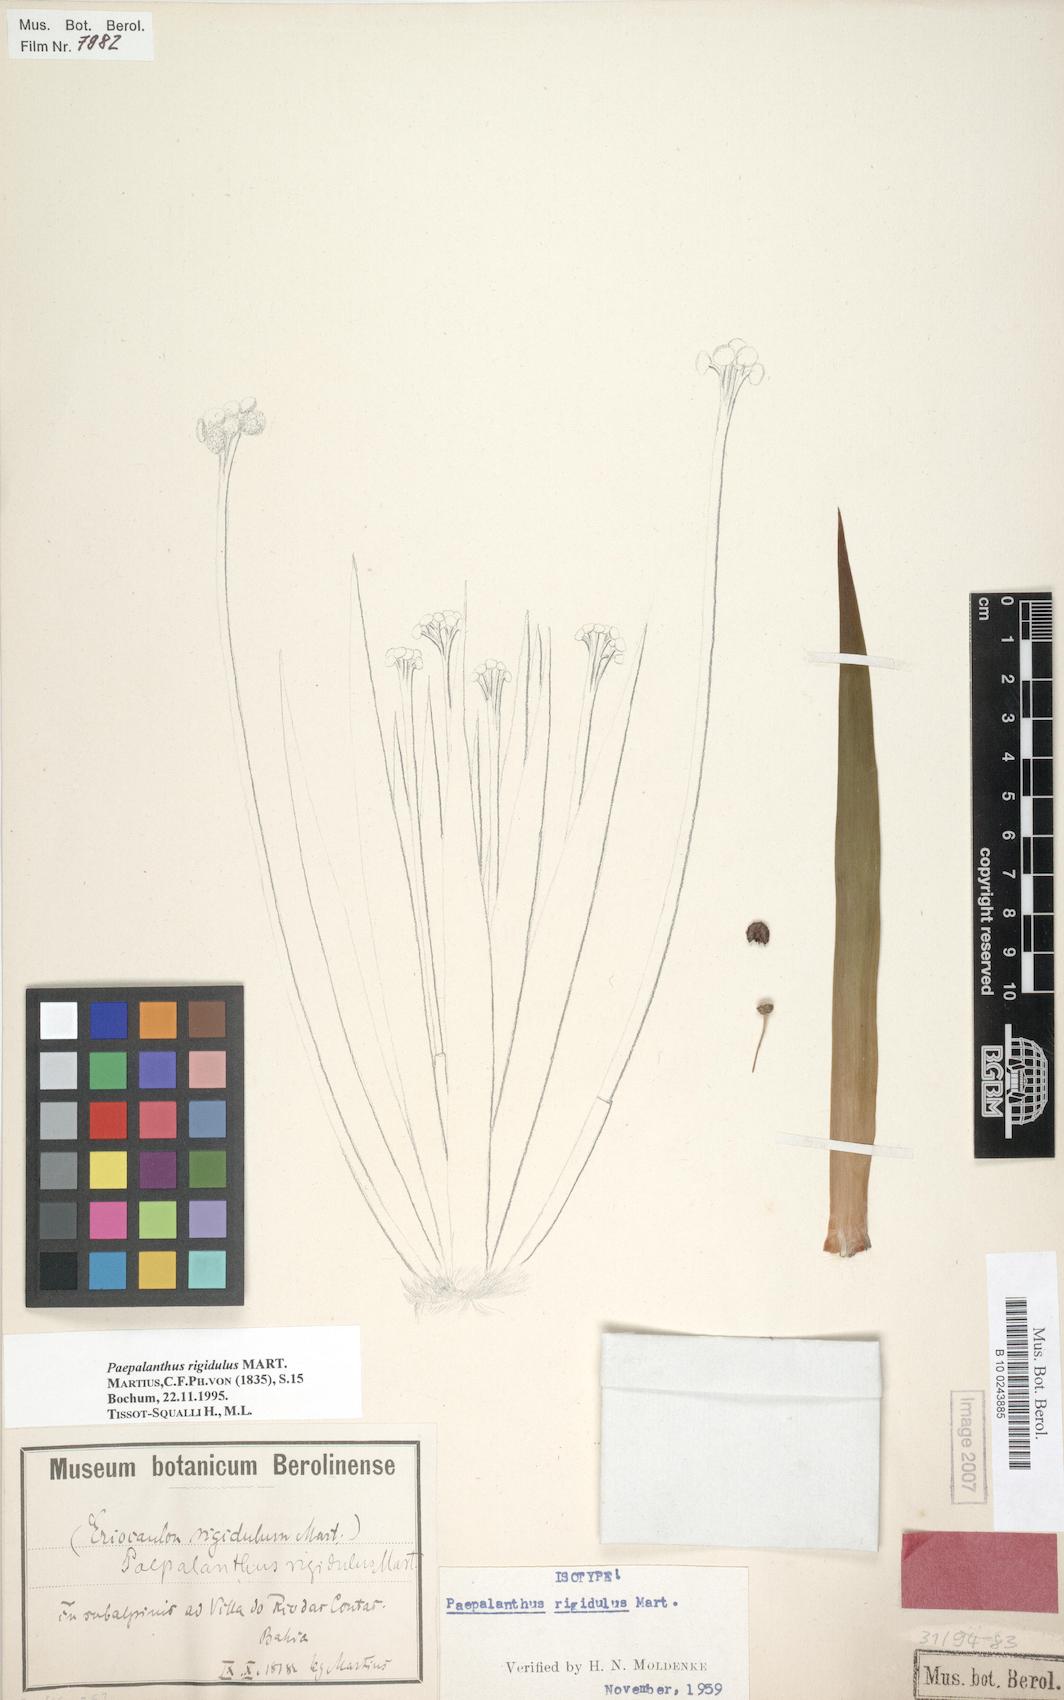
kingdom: Plantae
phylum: Tracheophyta
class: Liliopsida
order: Poales
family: Eriocaulaceae
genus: Paepalanthus
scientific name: Paepalanthus rigidulus
